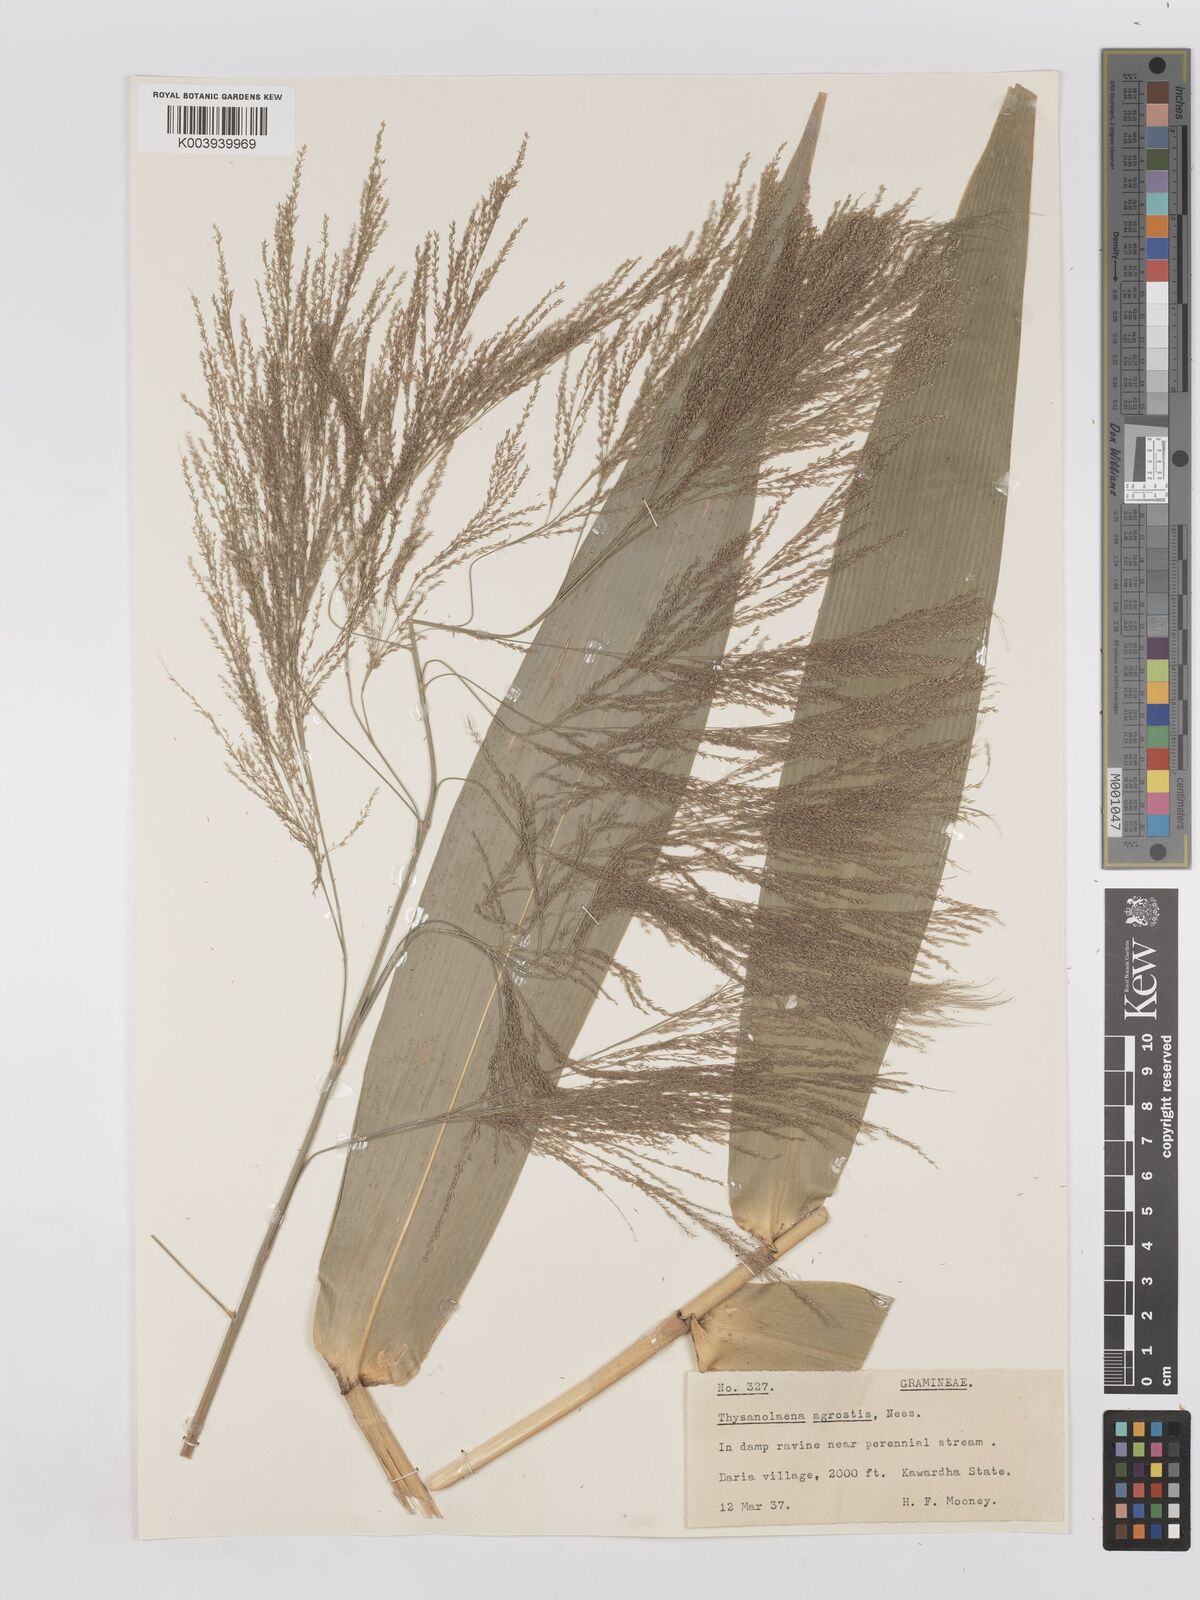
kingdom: Plantae
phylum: Tracheophyta
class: Liliopsida
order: Poales
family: Poaceae
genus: Thysanolaena
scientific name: Thysanolaena latifolia
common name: Tiger grass
